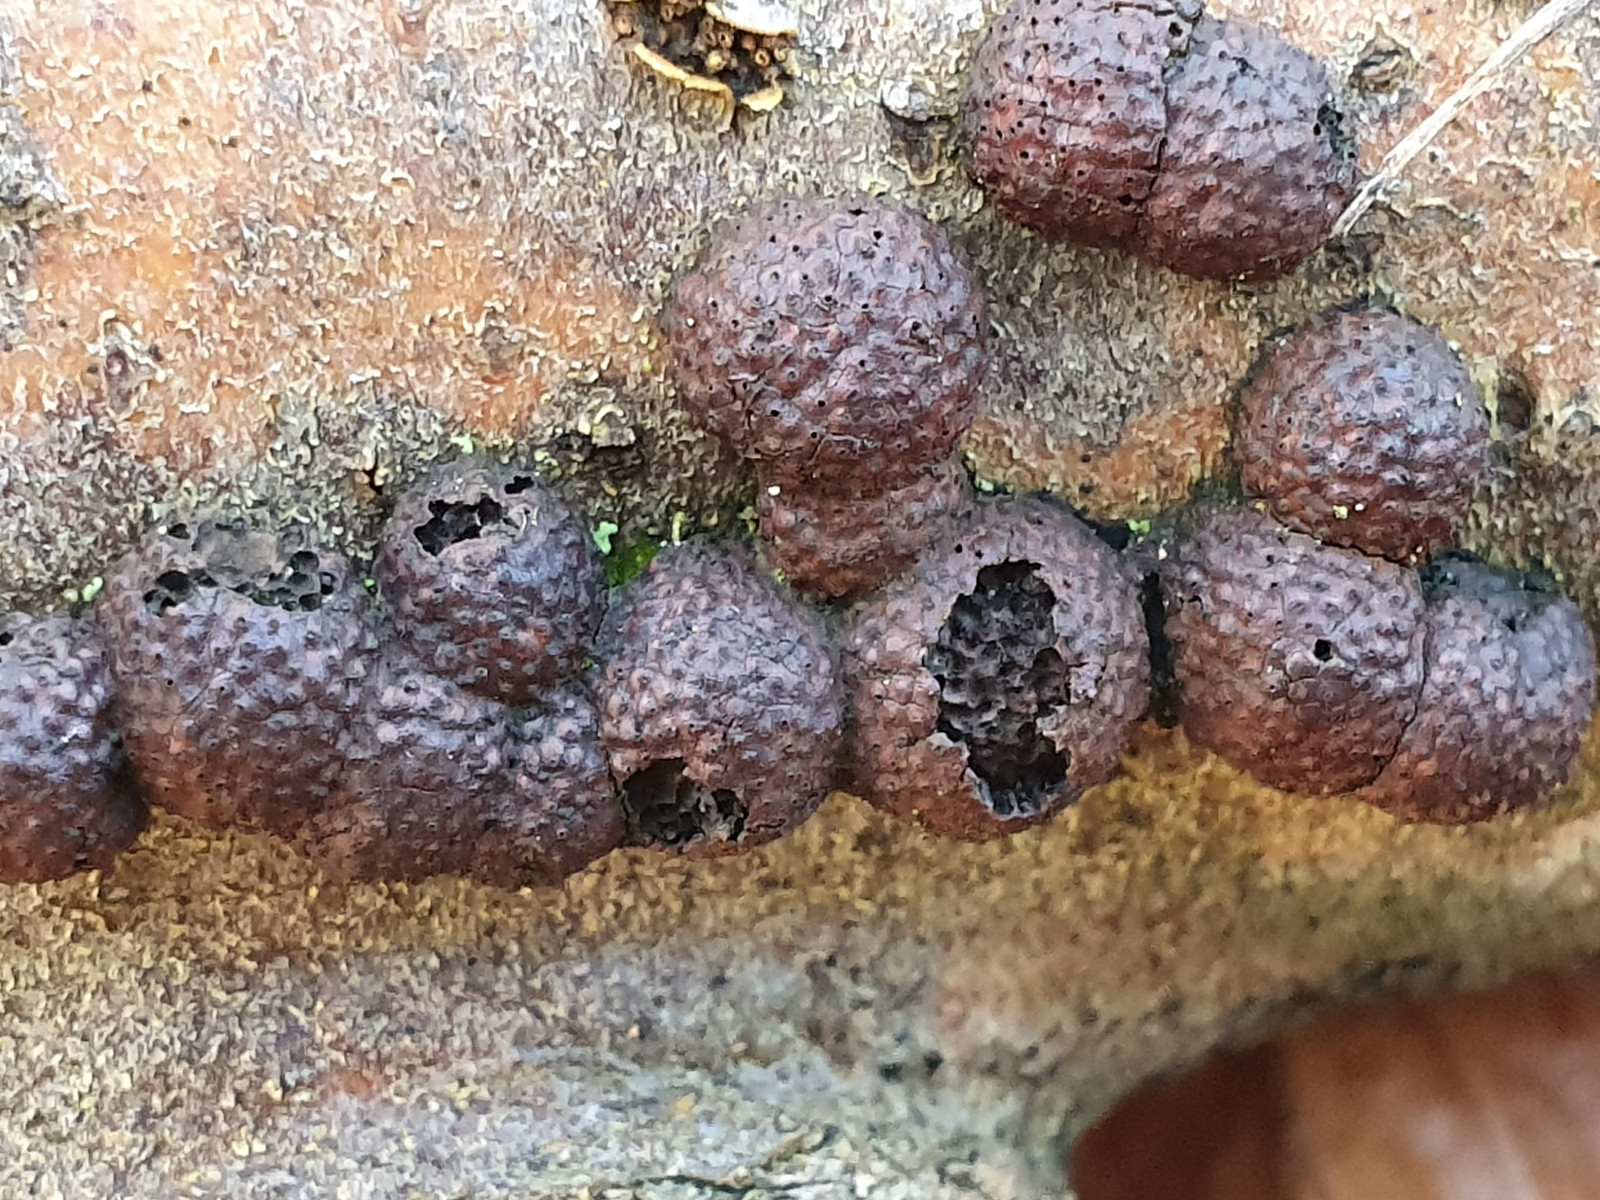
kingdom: Fungi
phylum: Ascomycota
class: Sordariomycetes
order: Xylariales
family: Hypoxylaceae
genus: Hypoxylon
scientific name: Hypoxylon fragiforme
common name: kuljordbær
